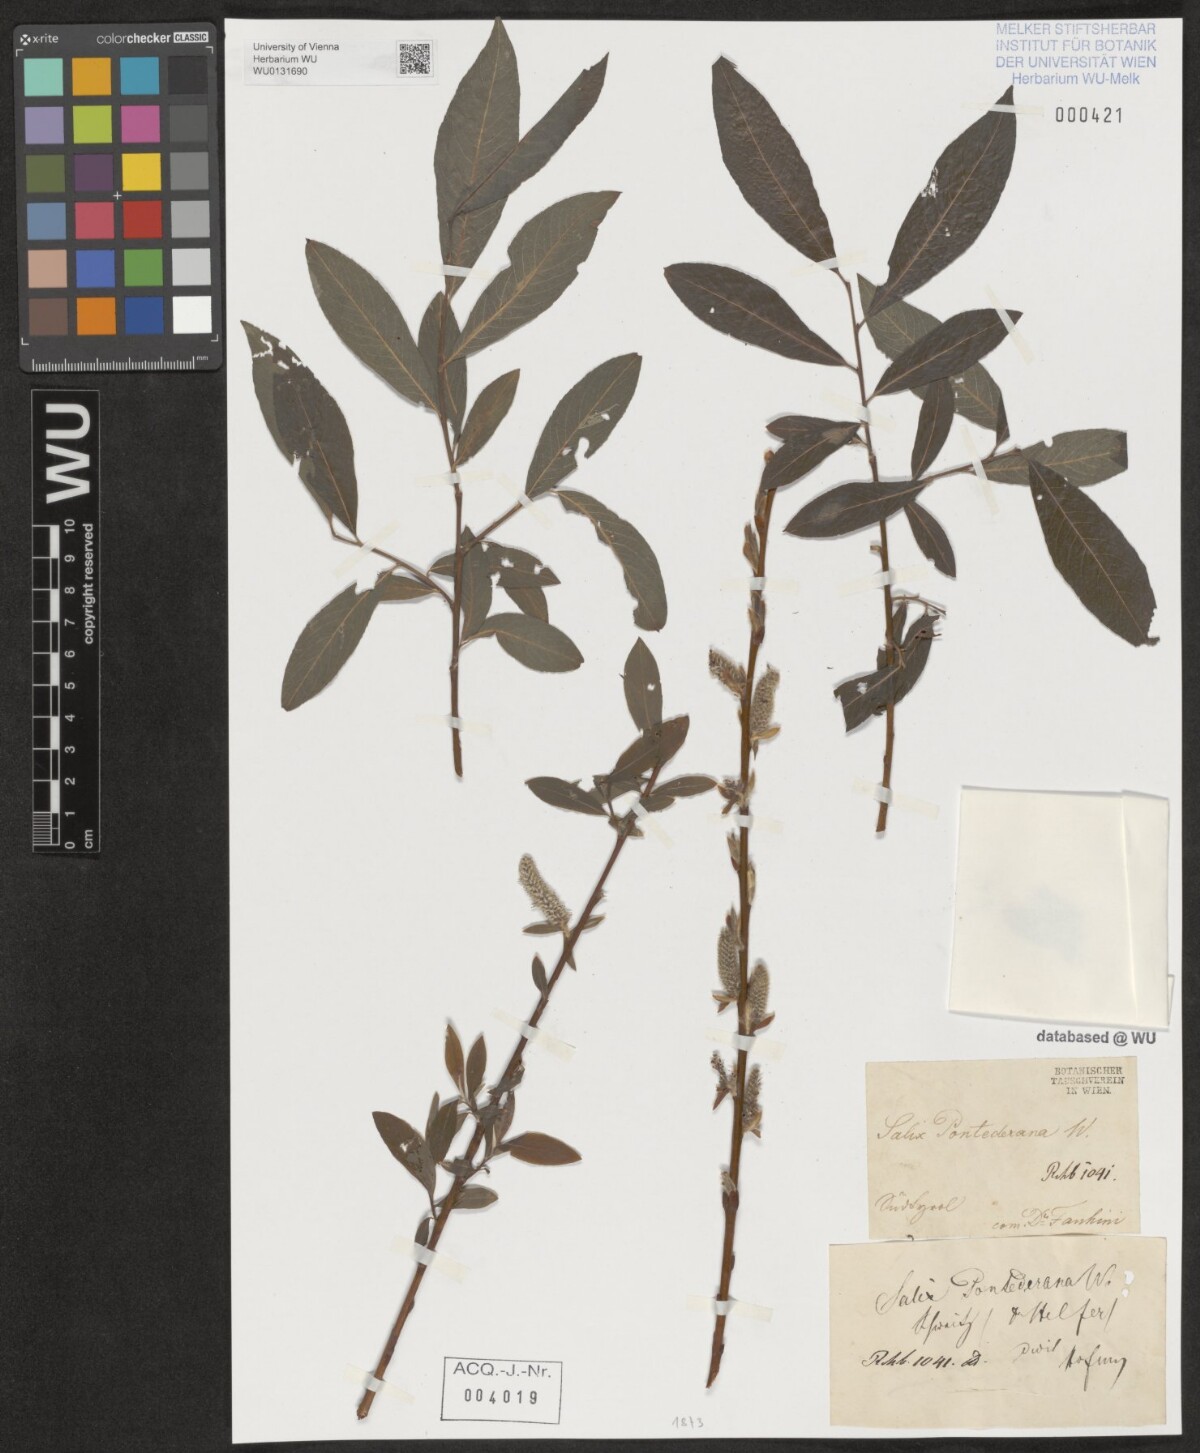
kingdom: Plantae
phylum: Tracheophyta
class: Magnoliopsida
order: Malpighiales
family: Salicaceae
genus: Salix
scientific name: Salix pontederana
